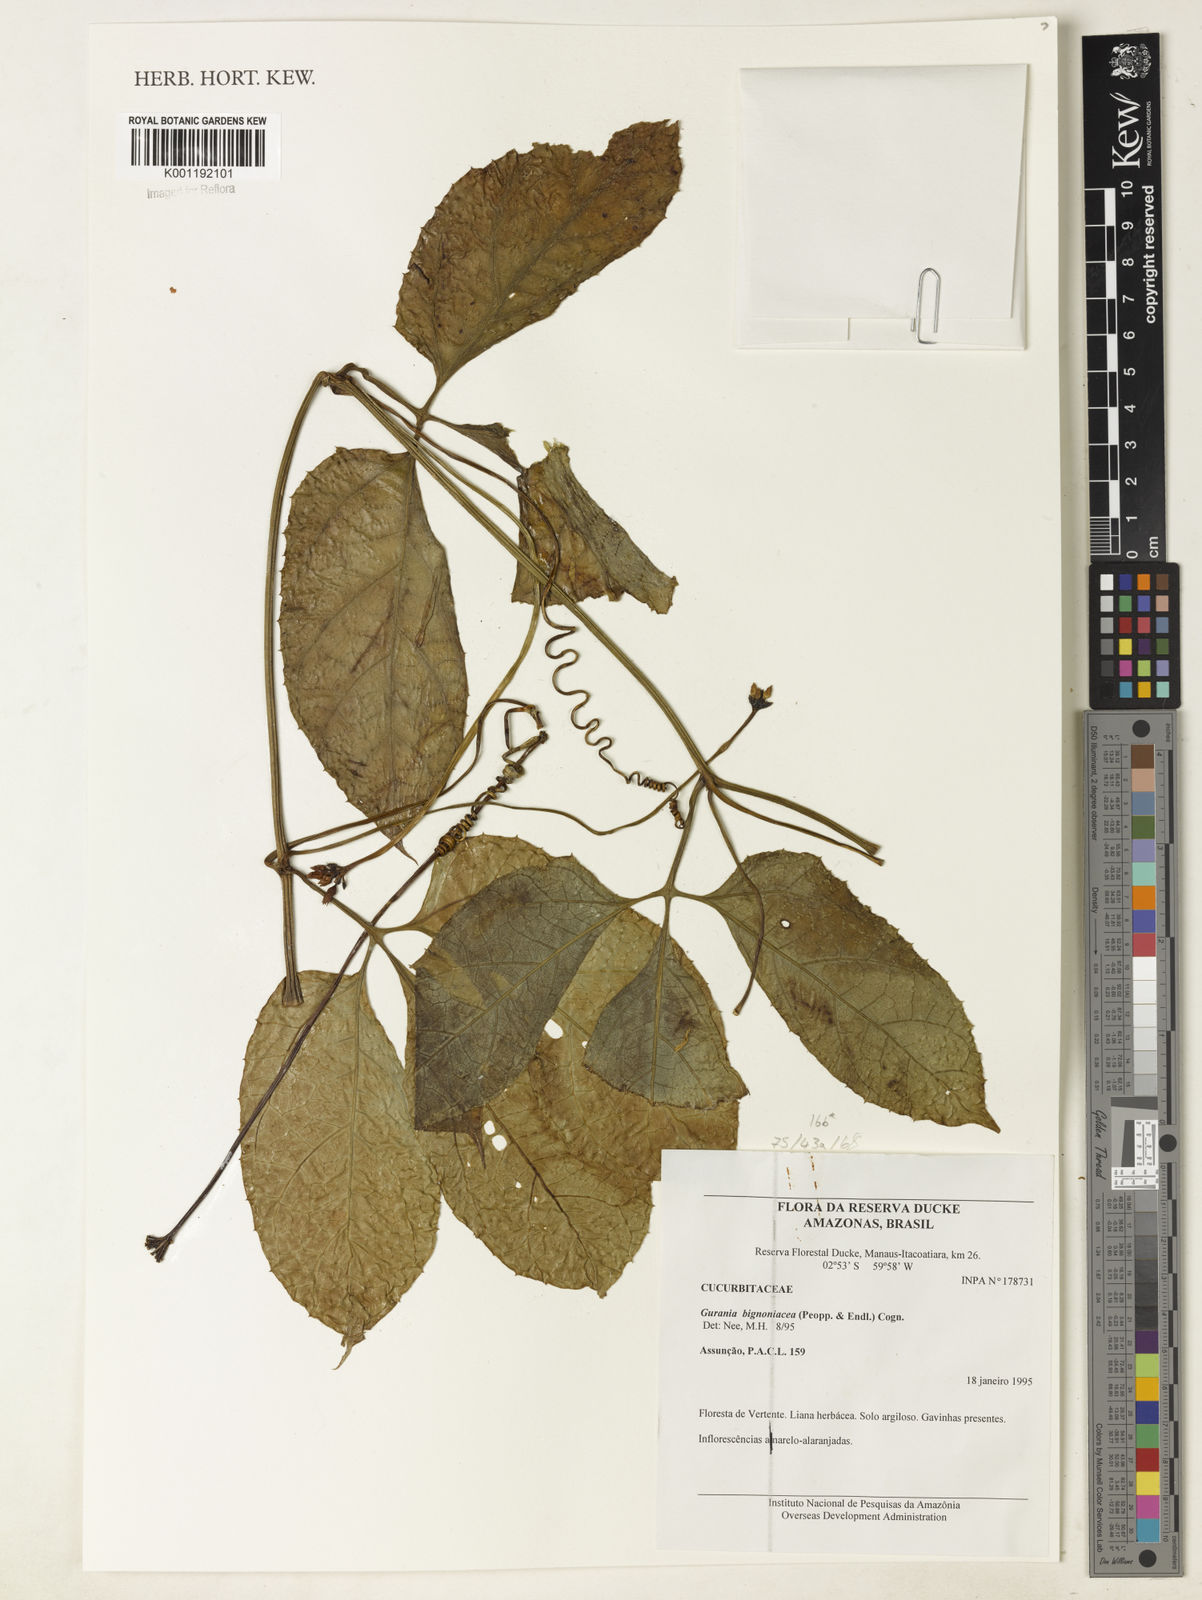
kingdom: Plantae
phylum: Tracheophyta
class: Magnoliopsida
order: Cucurbitales
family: Cucurbitaceae
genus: Gurania
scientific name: Gurania bignoniacea
